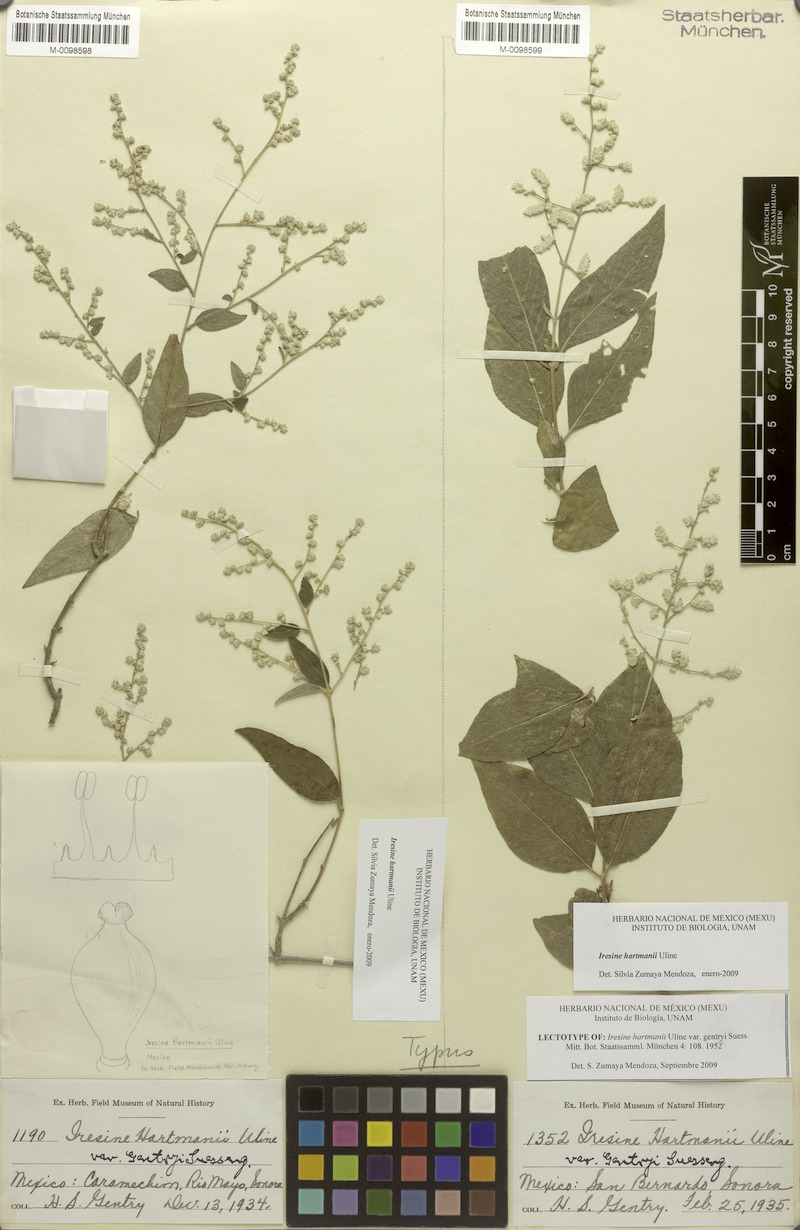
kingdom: Plantae
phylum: Tracheophyta
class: Magnoliopsida
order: Caryophyllales
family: Amaranthaceae
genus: Iresine
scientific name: Iresine hartmanii
